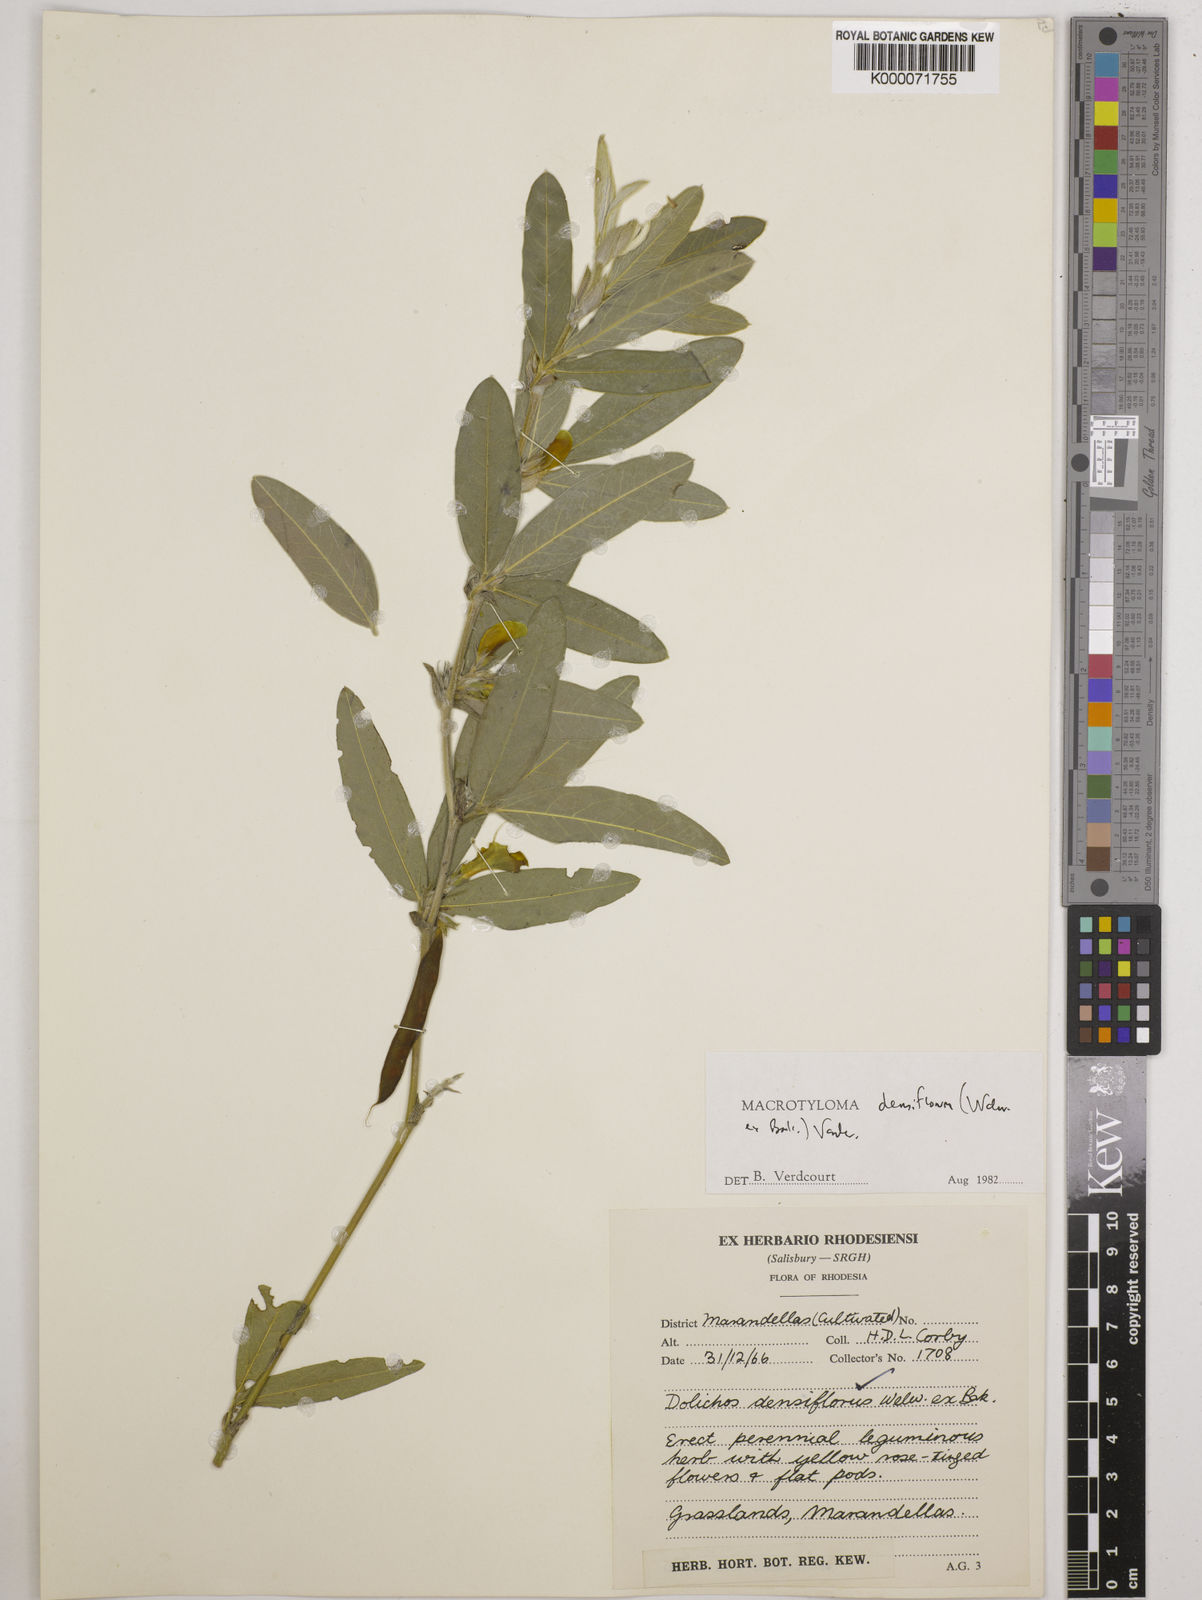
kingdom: Plantae
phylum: Tracheophyta
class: Magnoliopsida
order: Fabales
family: Fabaceae
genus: Macrotyloma
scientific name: Macrotyloma densiflorum
